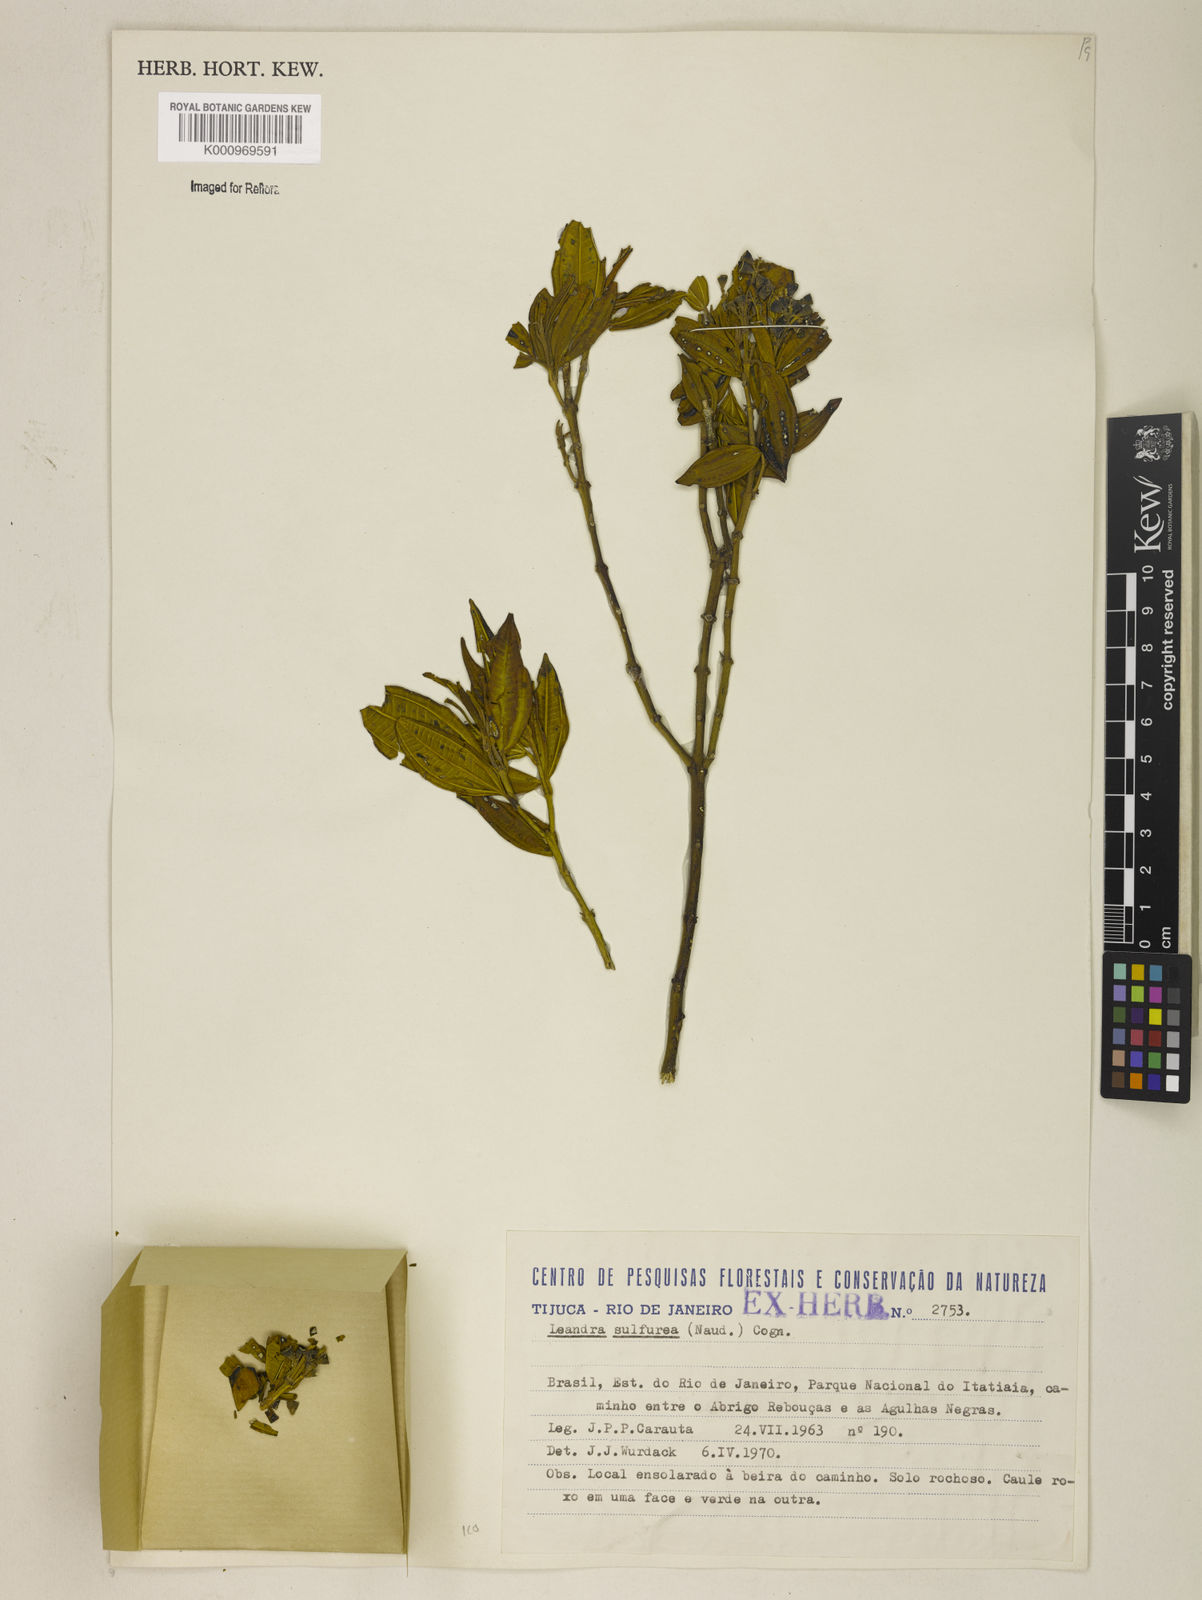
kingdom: Plantae
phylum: Tracheophyta
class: Magnoliopsida
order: Myrtales
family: Melastomataceae
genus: Miconia
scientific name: Miconia sulfurea
